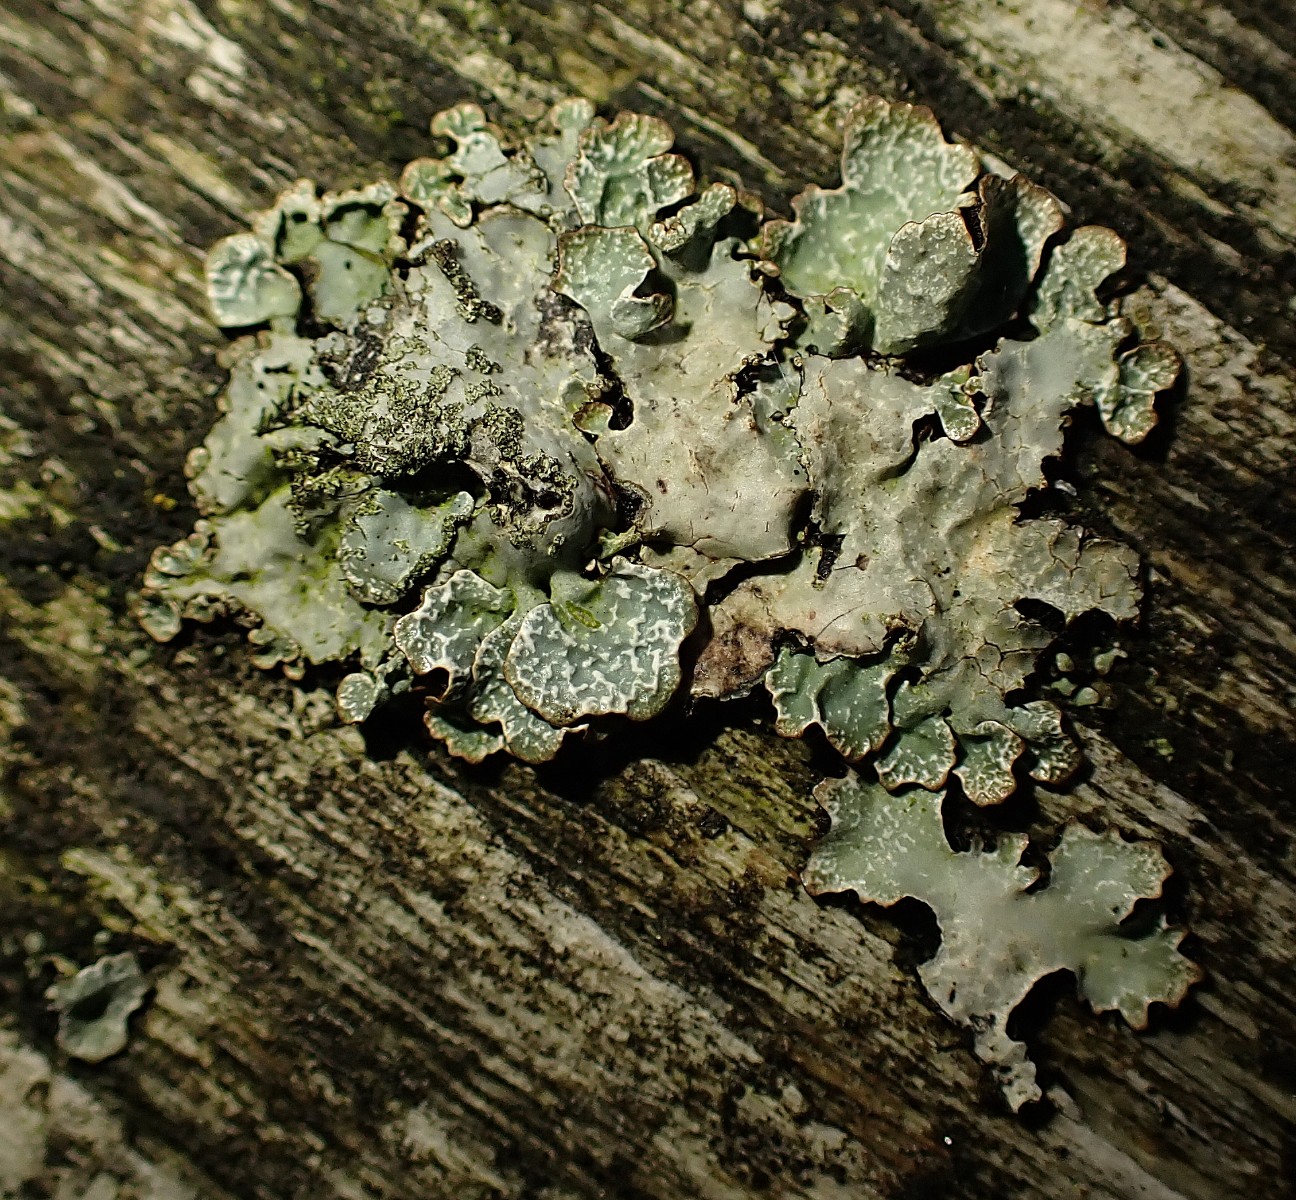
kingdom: Fungi
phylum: Ascomycota
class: Lecanoromycetes
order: Lecanorales
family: Parmeliaceae
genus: Parmelia
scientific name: Parmelia sulcata
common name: rynket skållav
